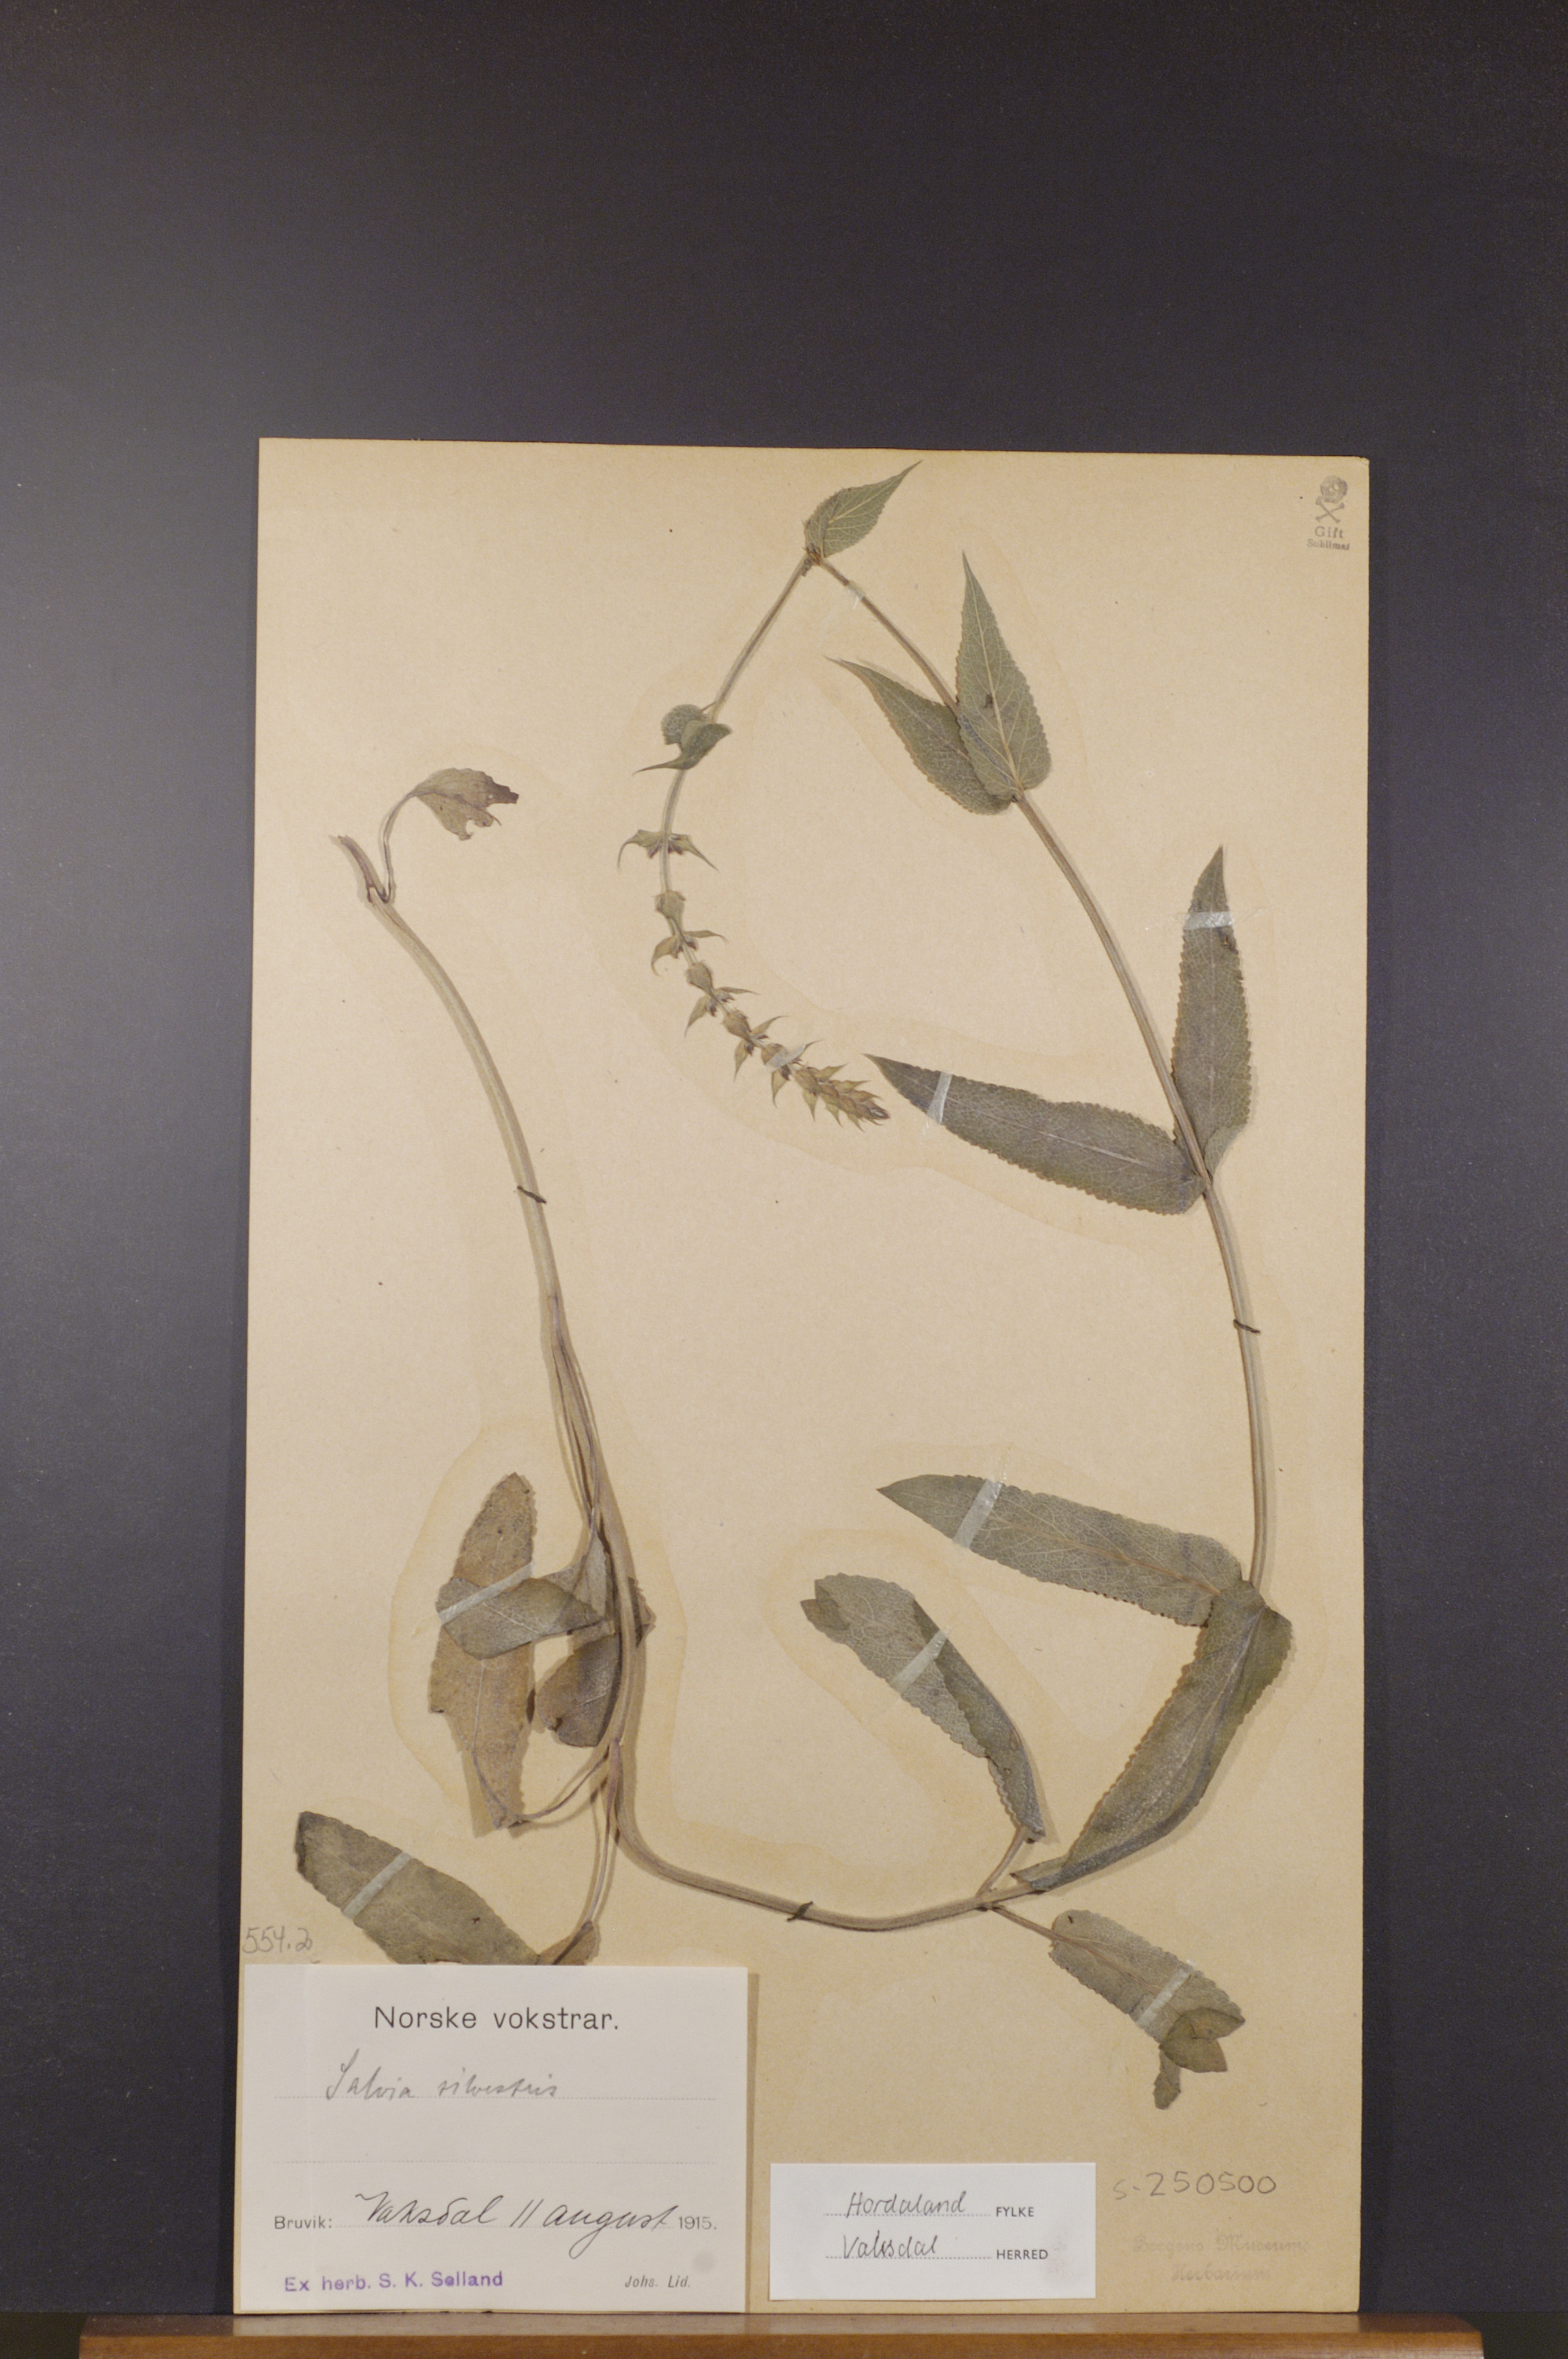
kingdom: Plantae
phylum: Tracheophyta
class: Magnoliopsida
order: Lamiales
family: Lamiaceae
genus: Salvia
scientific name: Salvia nemorosa
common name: Balkan clary
